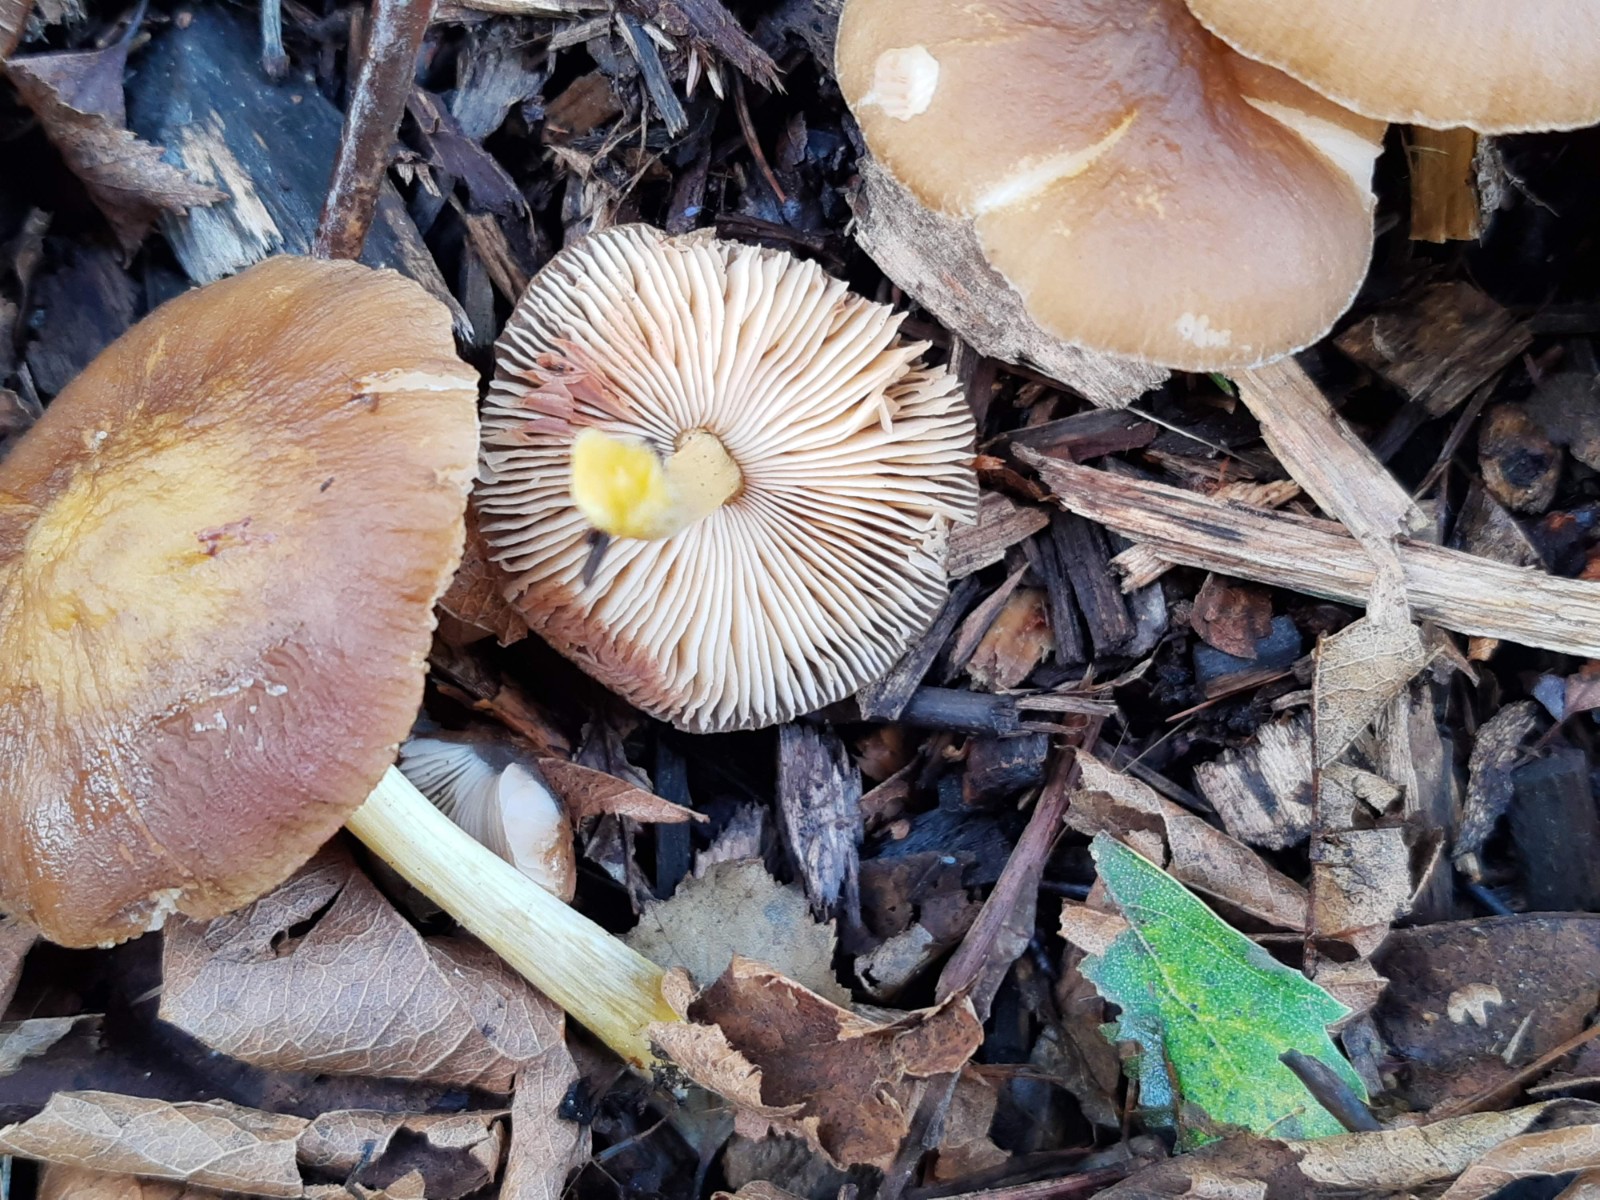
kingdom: Fungi
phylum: Basidiomycota
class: Agaricomycetes
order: Agaricales
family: Pluteaceae
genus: Pluteus
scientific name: Pluteus vellingae
